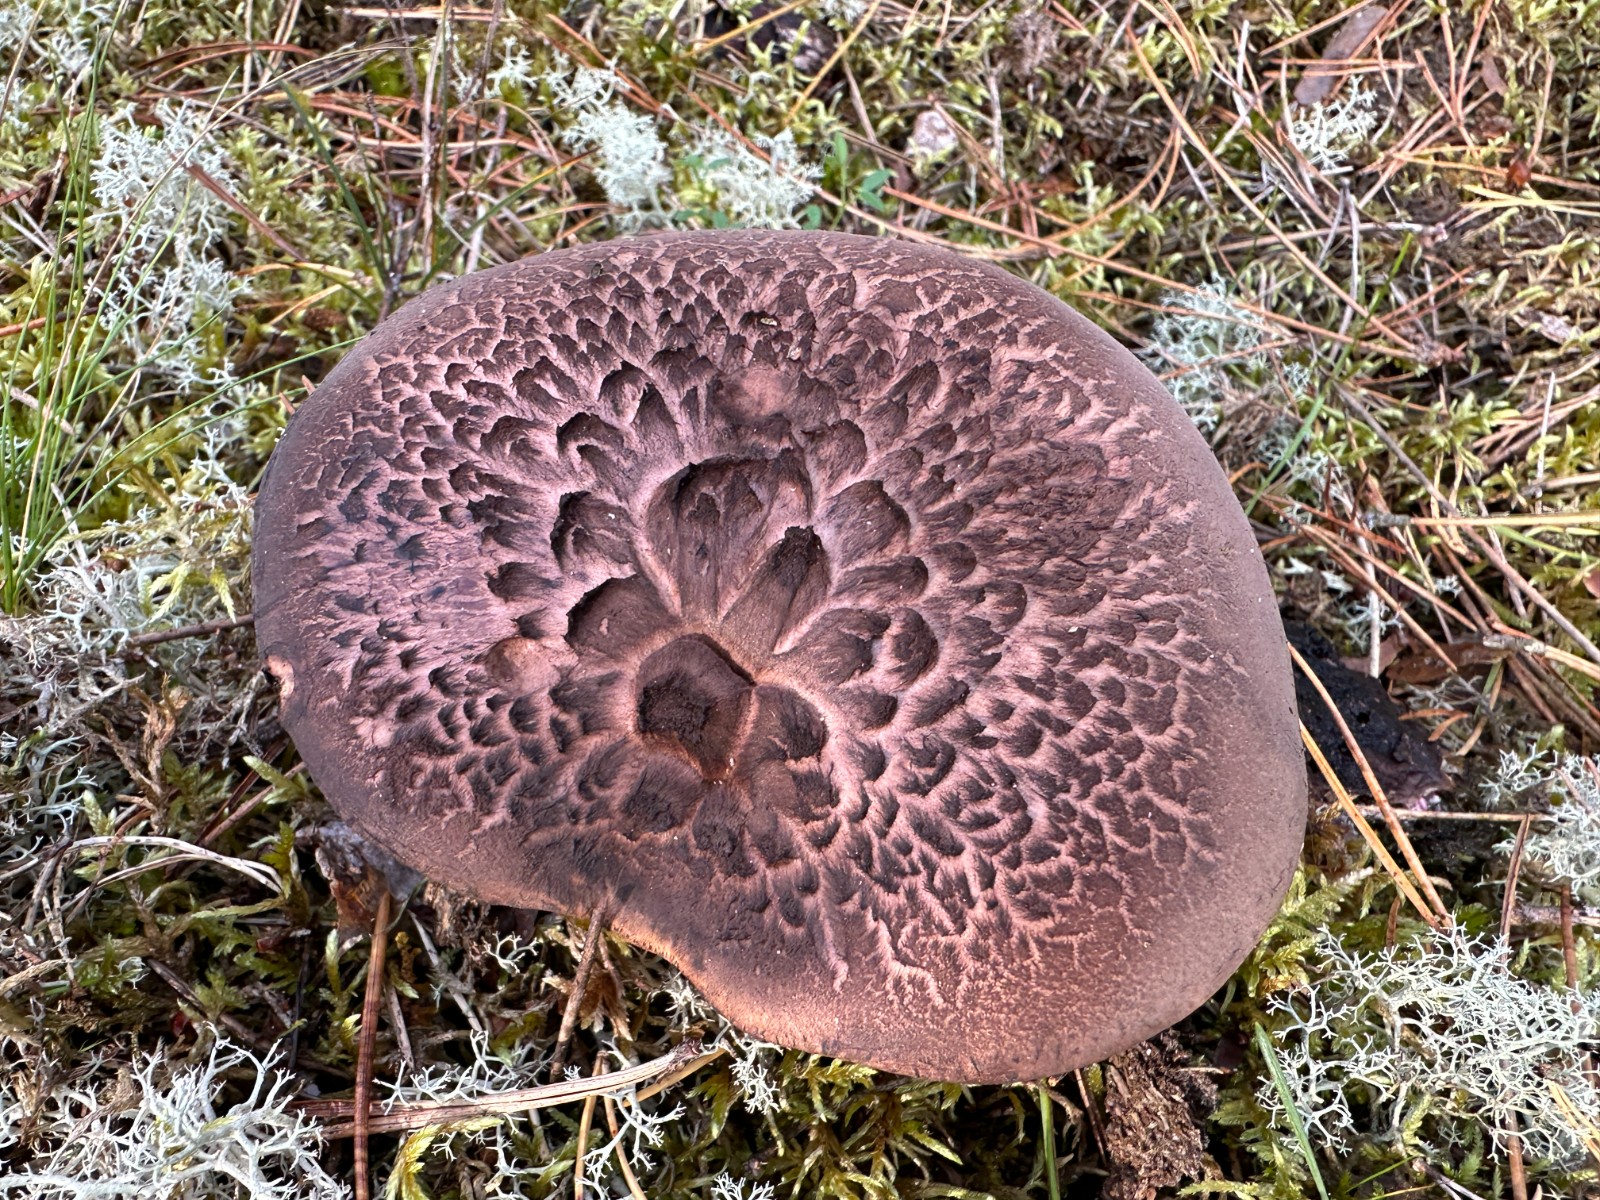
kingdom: Fungi
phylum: Basidiomycota
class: Agaricomycetes
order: Thelephorales
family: Bankeraceae
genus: Sarcodon
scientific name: Sarcodon squamosus
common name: småskællet kødpigsvamp
